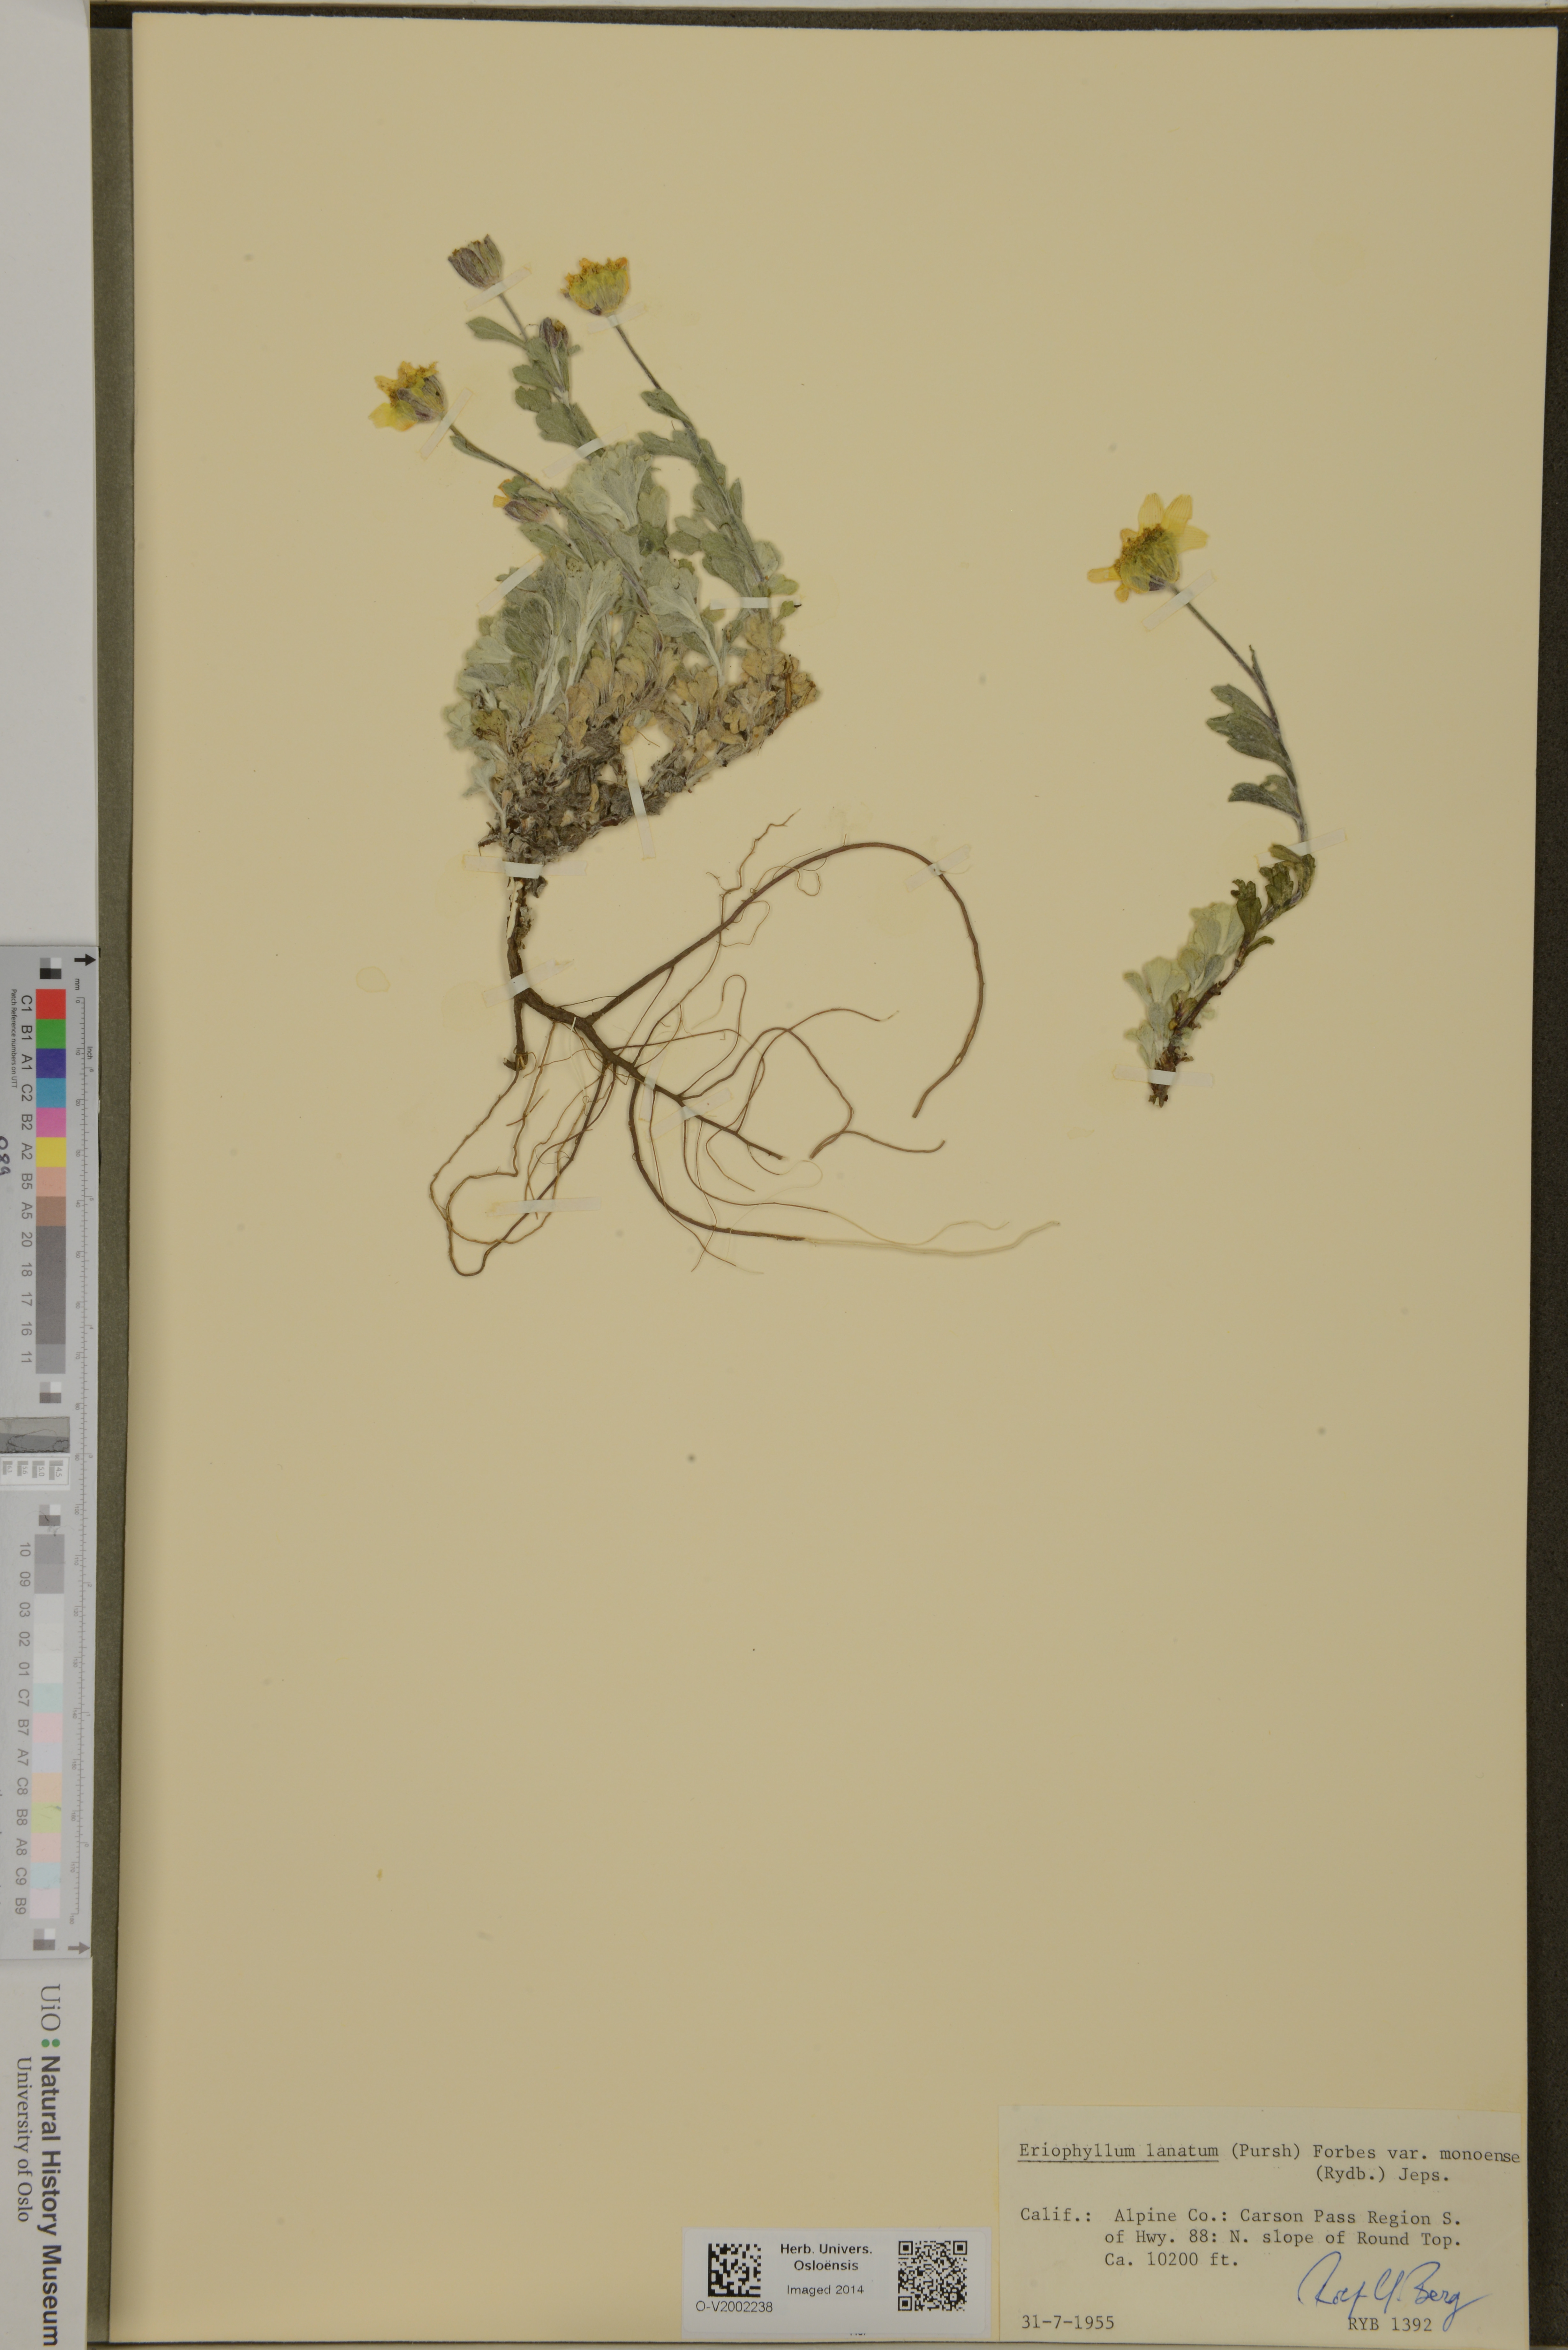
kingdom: Plantae
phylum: Tracheophyta
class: Magnoliopsida
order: Asterales
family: Asteraceae
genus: Eriophyllum
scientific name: Eriophyllum lanatum
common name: Common woolly-sunflower
